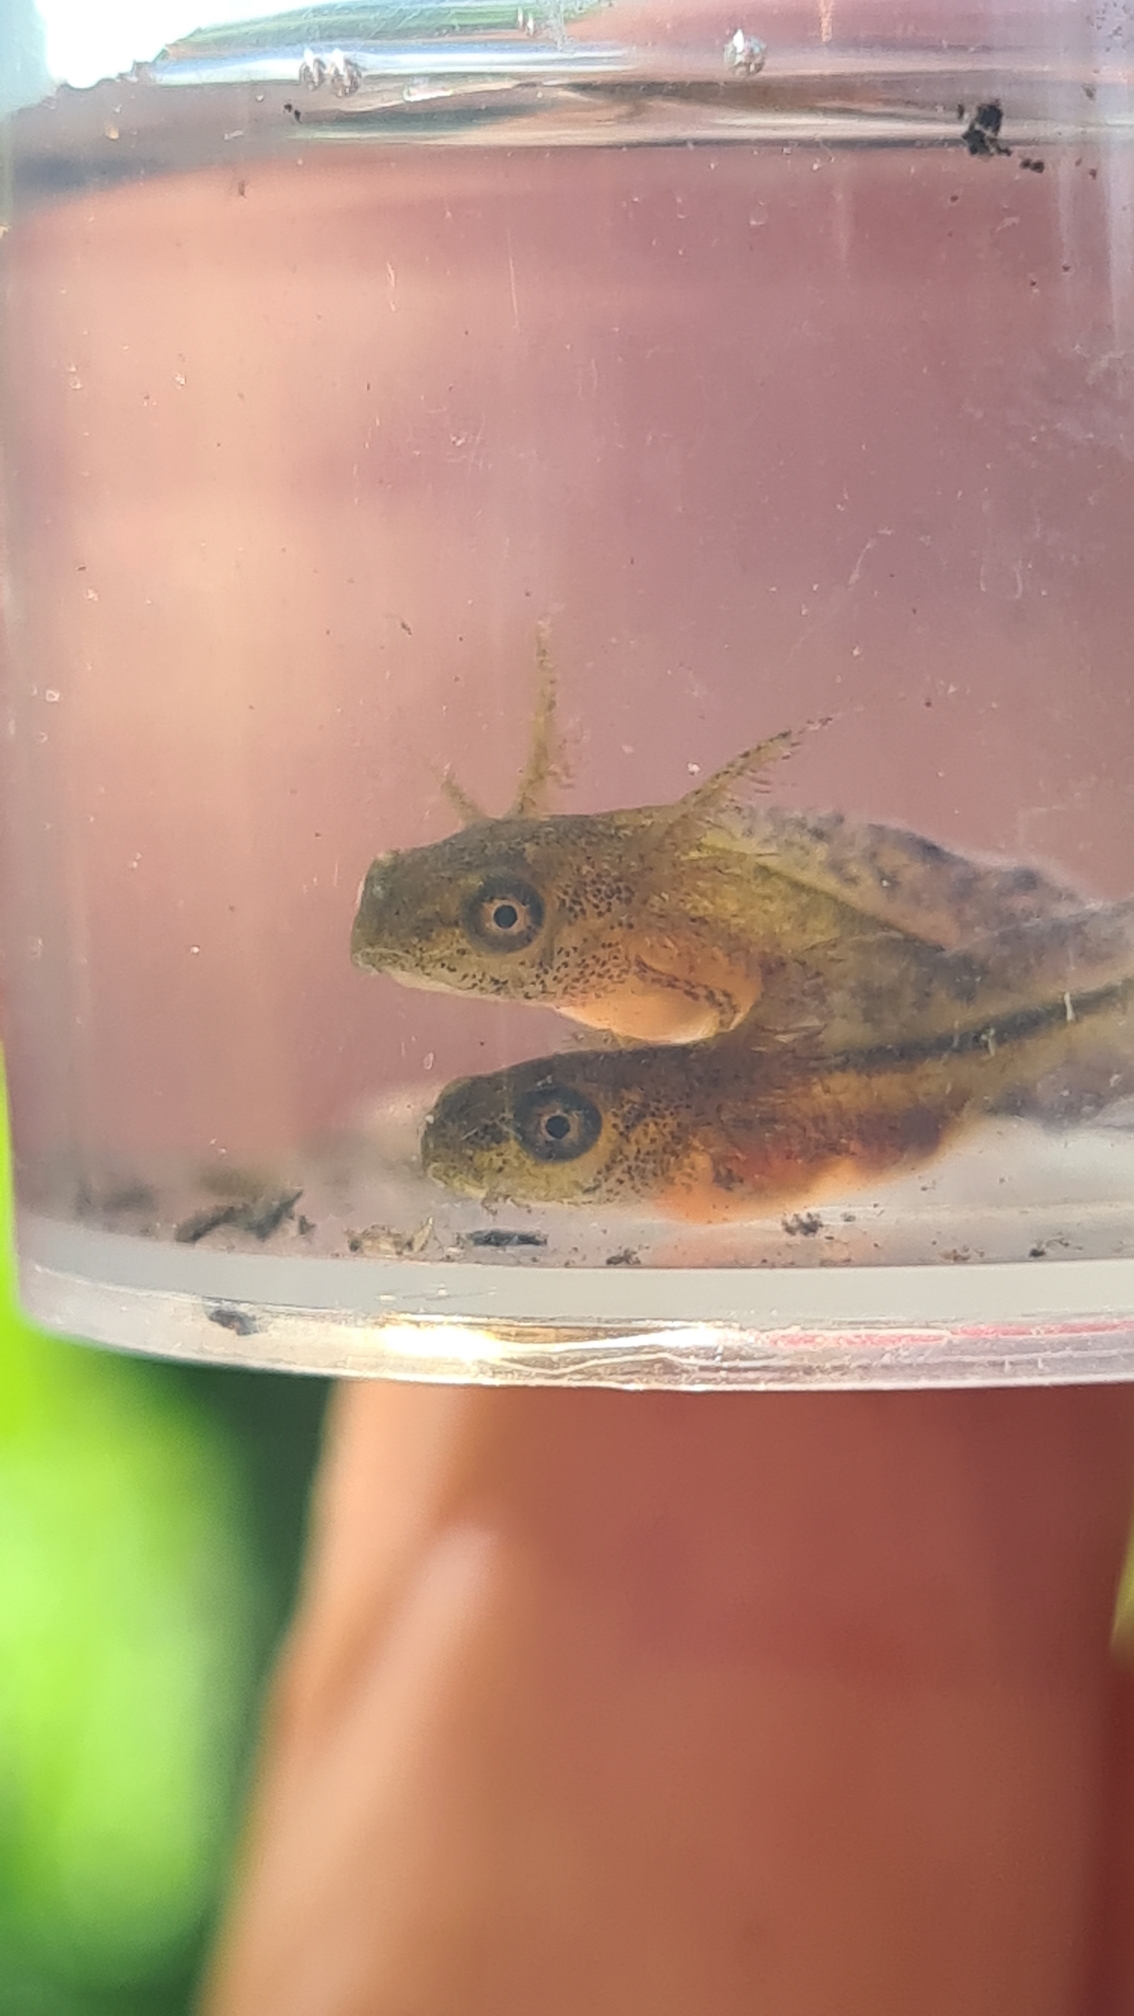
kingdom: Animalia
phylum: Chordata
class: Amphibia
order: Caudata
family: Salamandridae
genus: Triturus
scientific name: Triturus cristatus
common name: Stor vandsalamander
